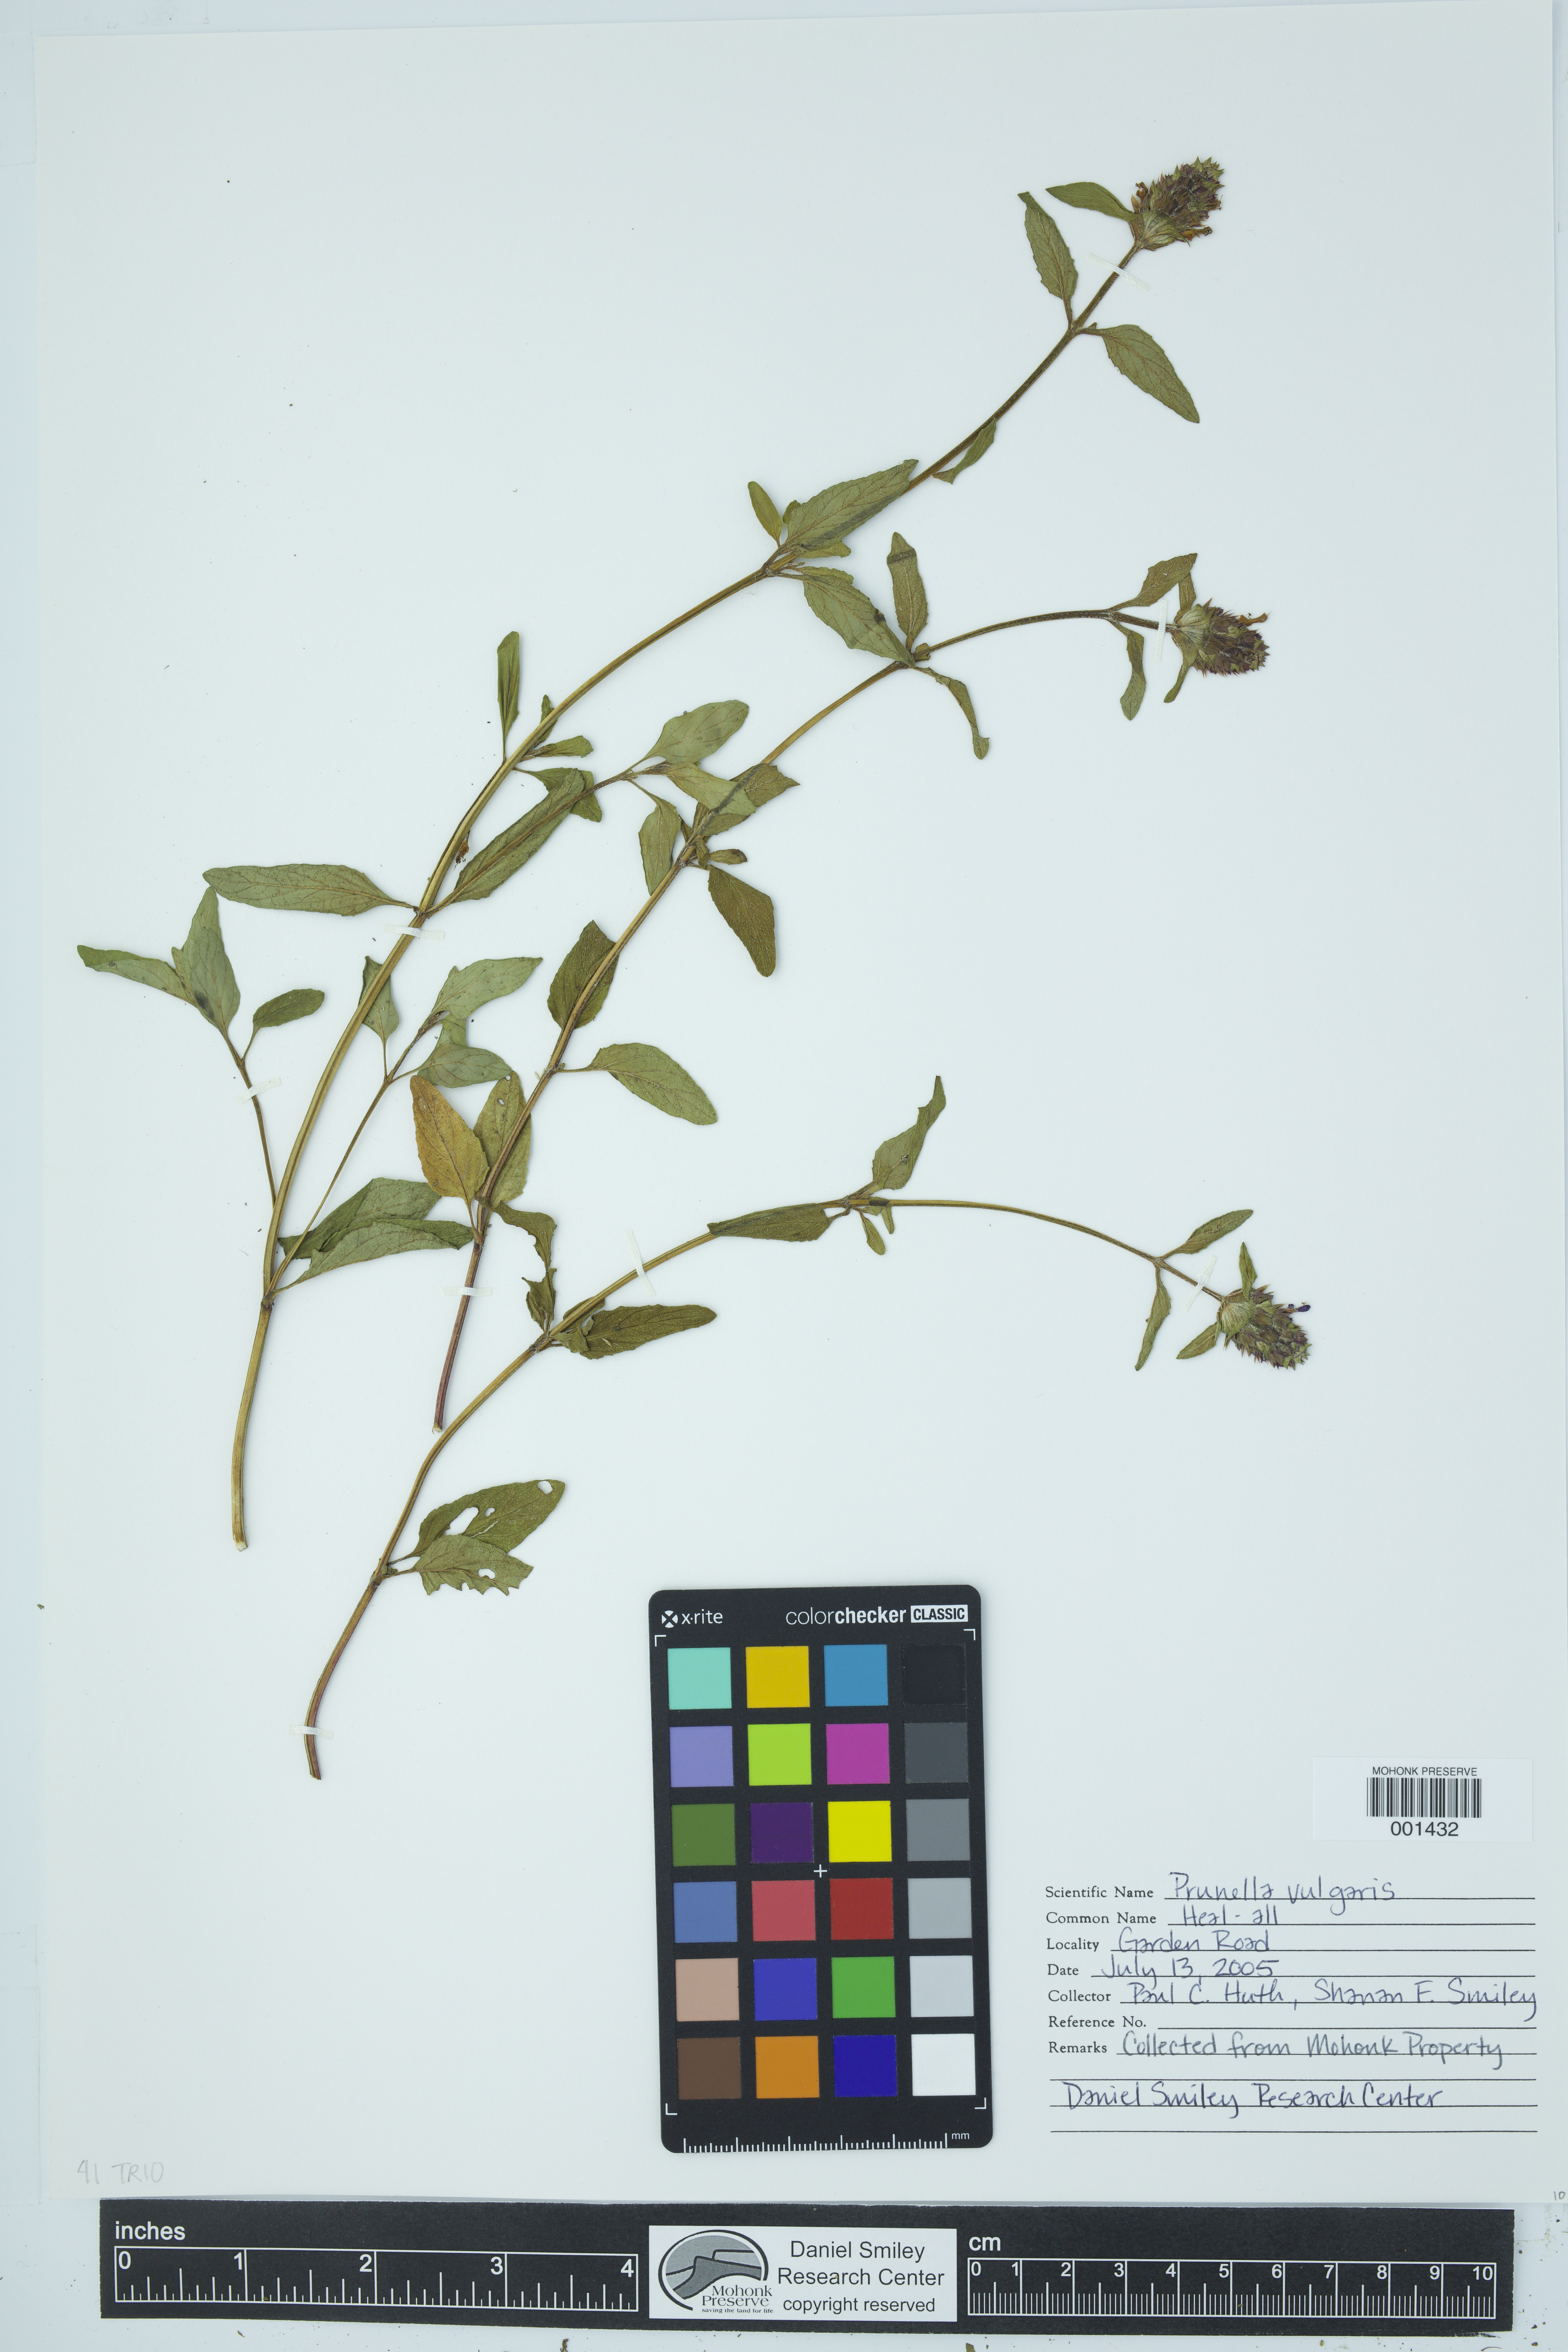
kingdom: Plantae
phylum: Tracheophyta
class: Magnoliopsida
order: Lamiales
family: Lamiaceae
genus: Prunella
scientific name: Prunella vulgaris
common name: Heal-all
